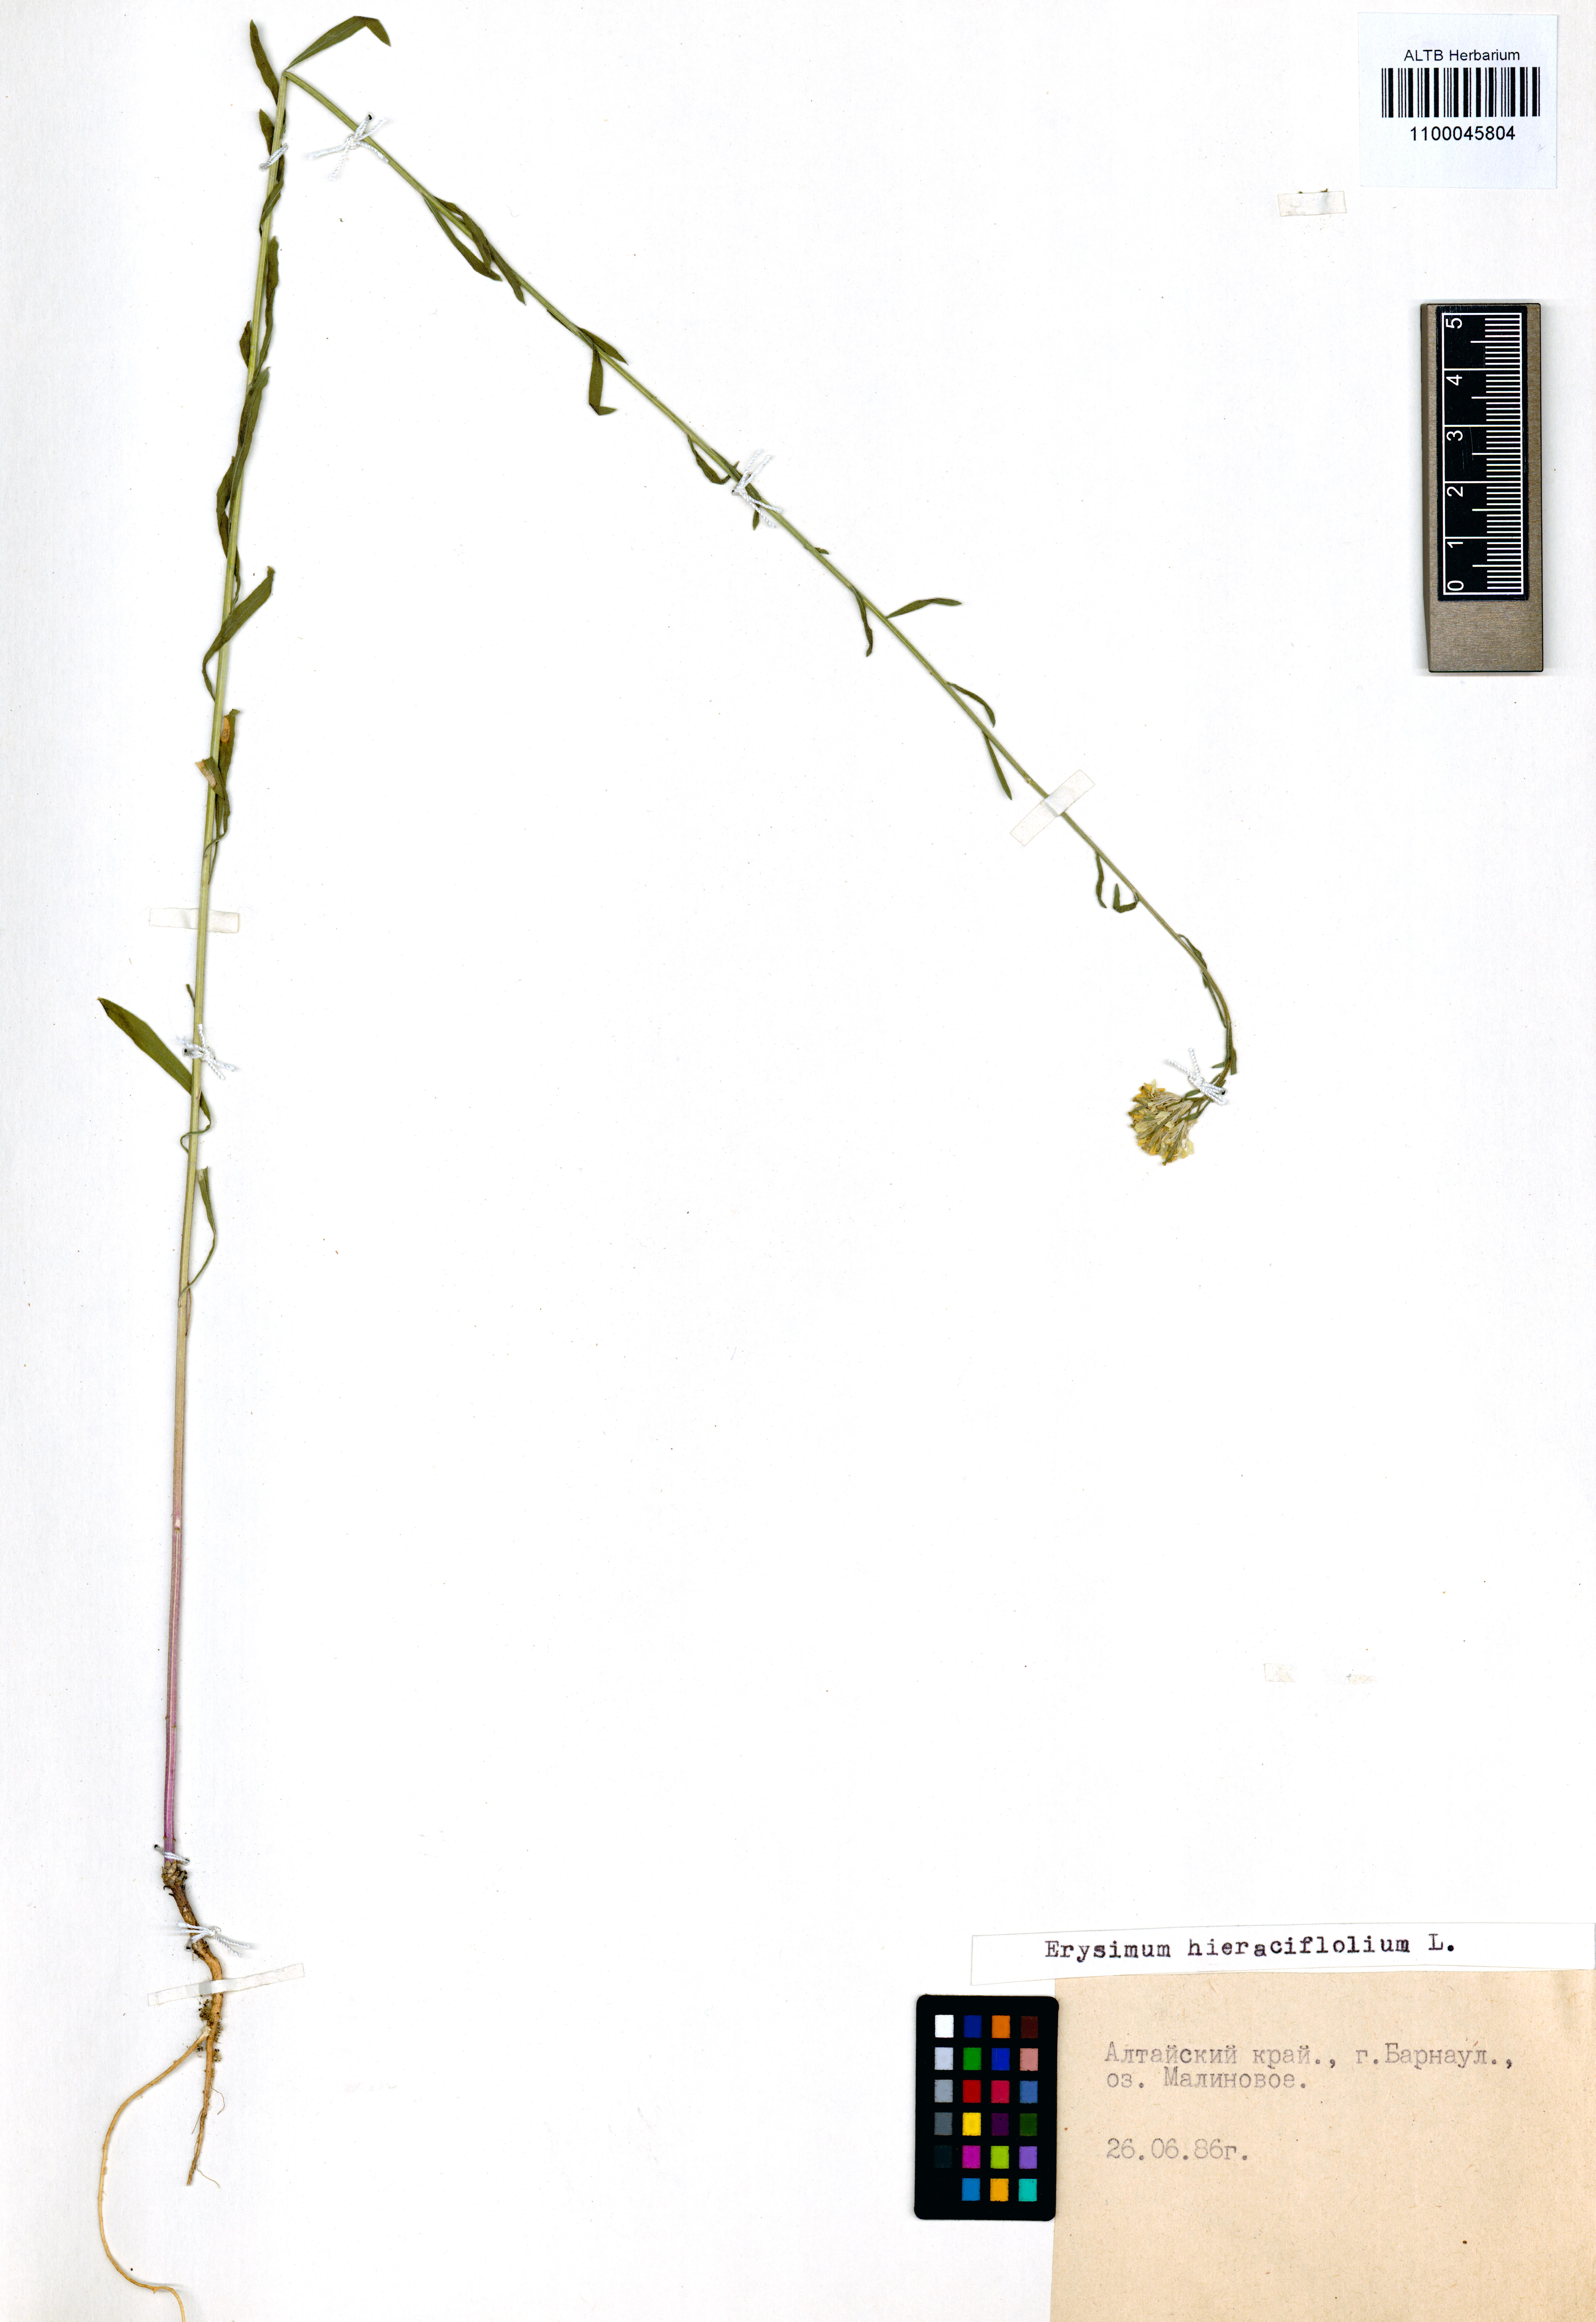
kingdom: Plantae
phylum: Tracheophyta
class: Magnoliopsida
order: Brassicales
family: Brassicaceae
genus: Erysimum
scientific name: Erysimum hieraciifolium
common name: European wallflower
